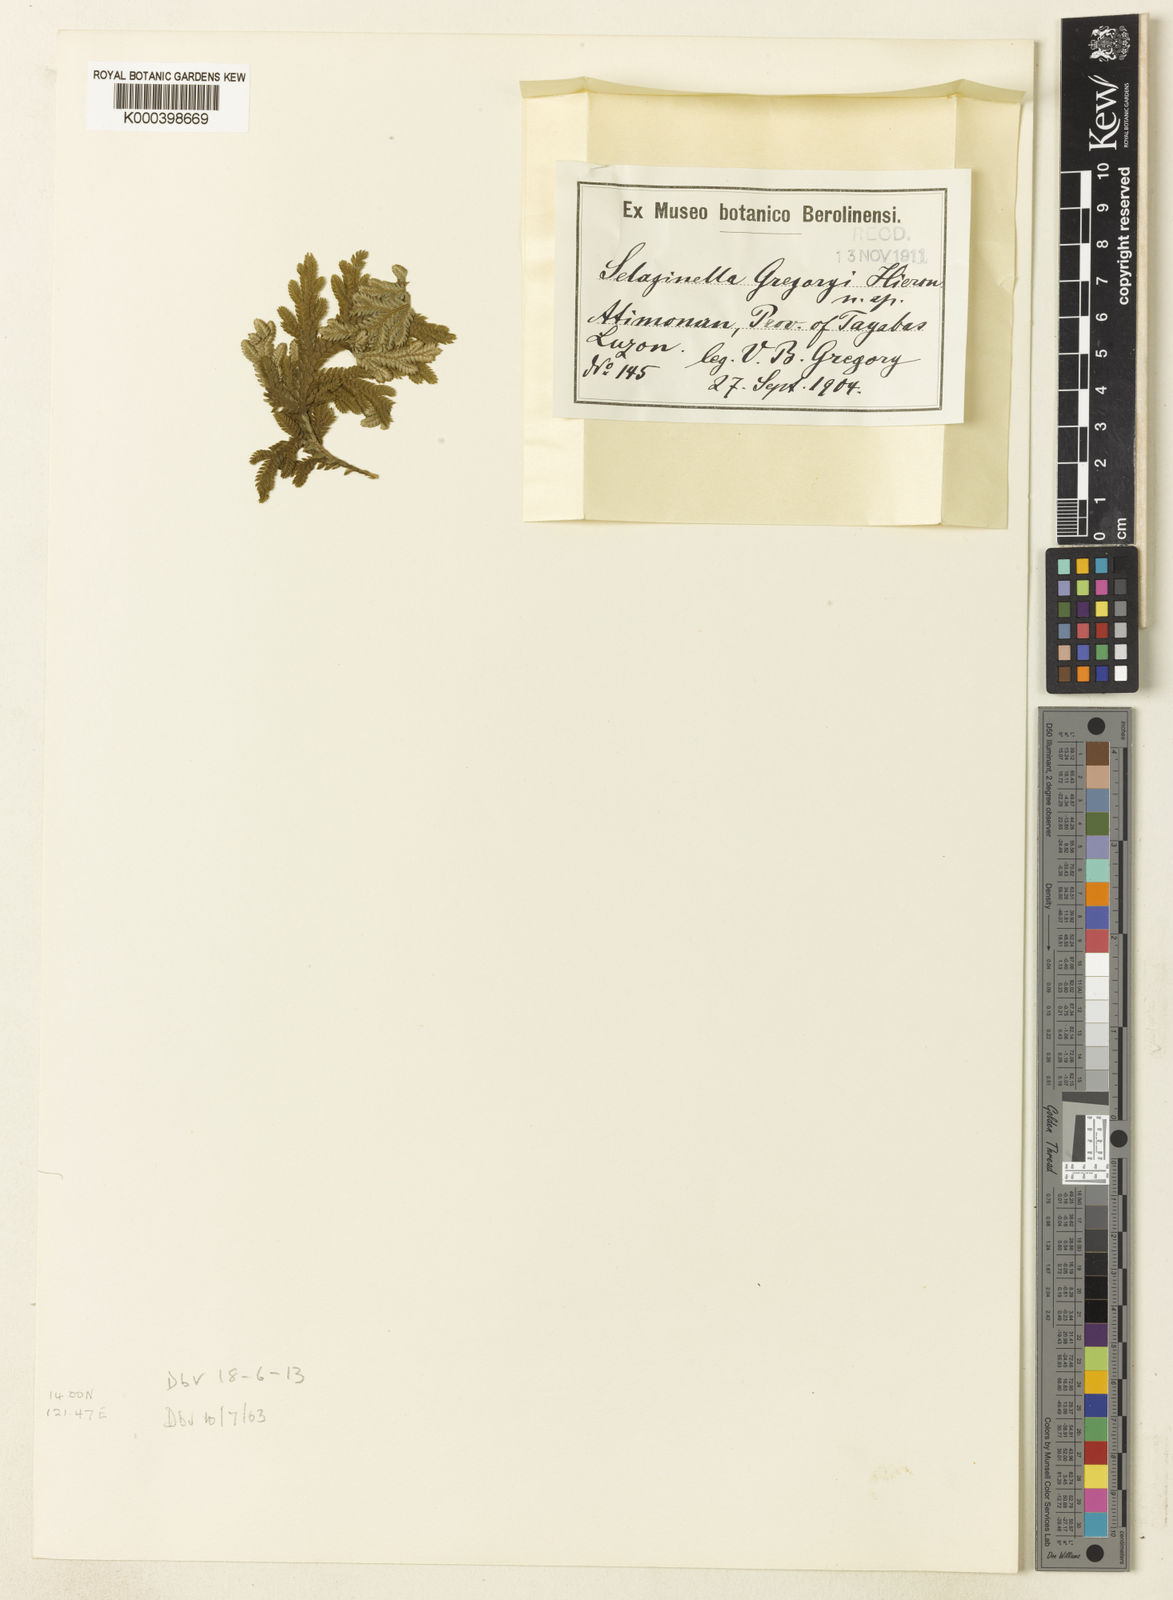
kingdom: Plantae
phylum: Tracheophyta
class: Lycopodiopsida
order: Selaginellales
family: Selaginellaceae
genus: Selaginella
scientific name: Selaginella fenixii
